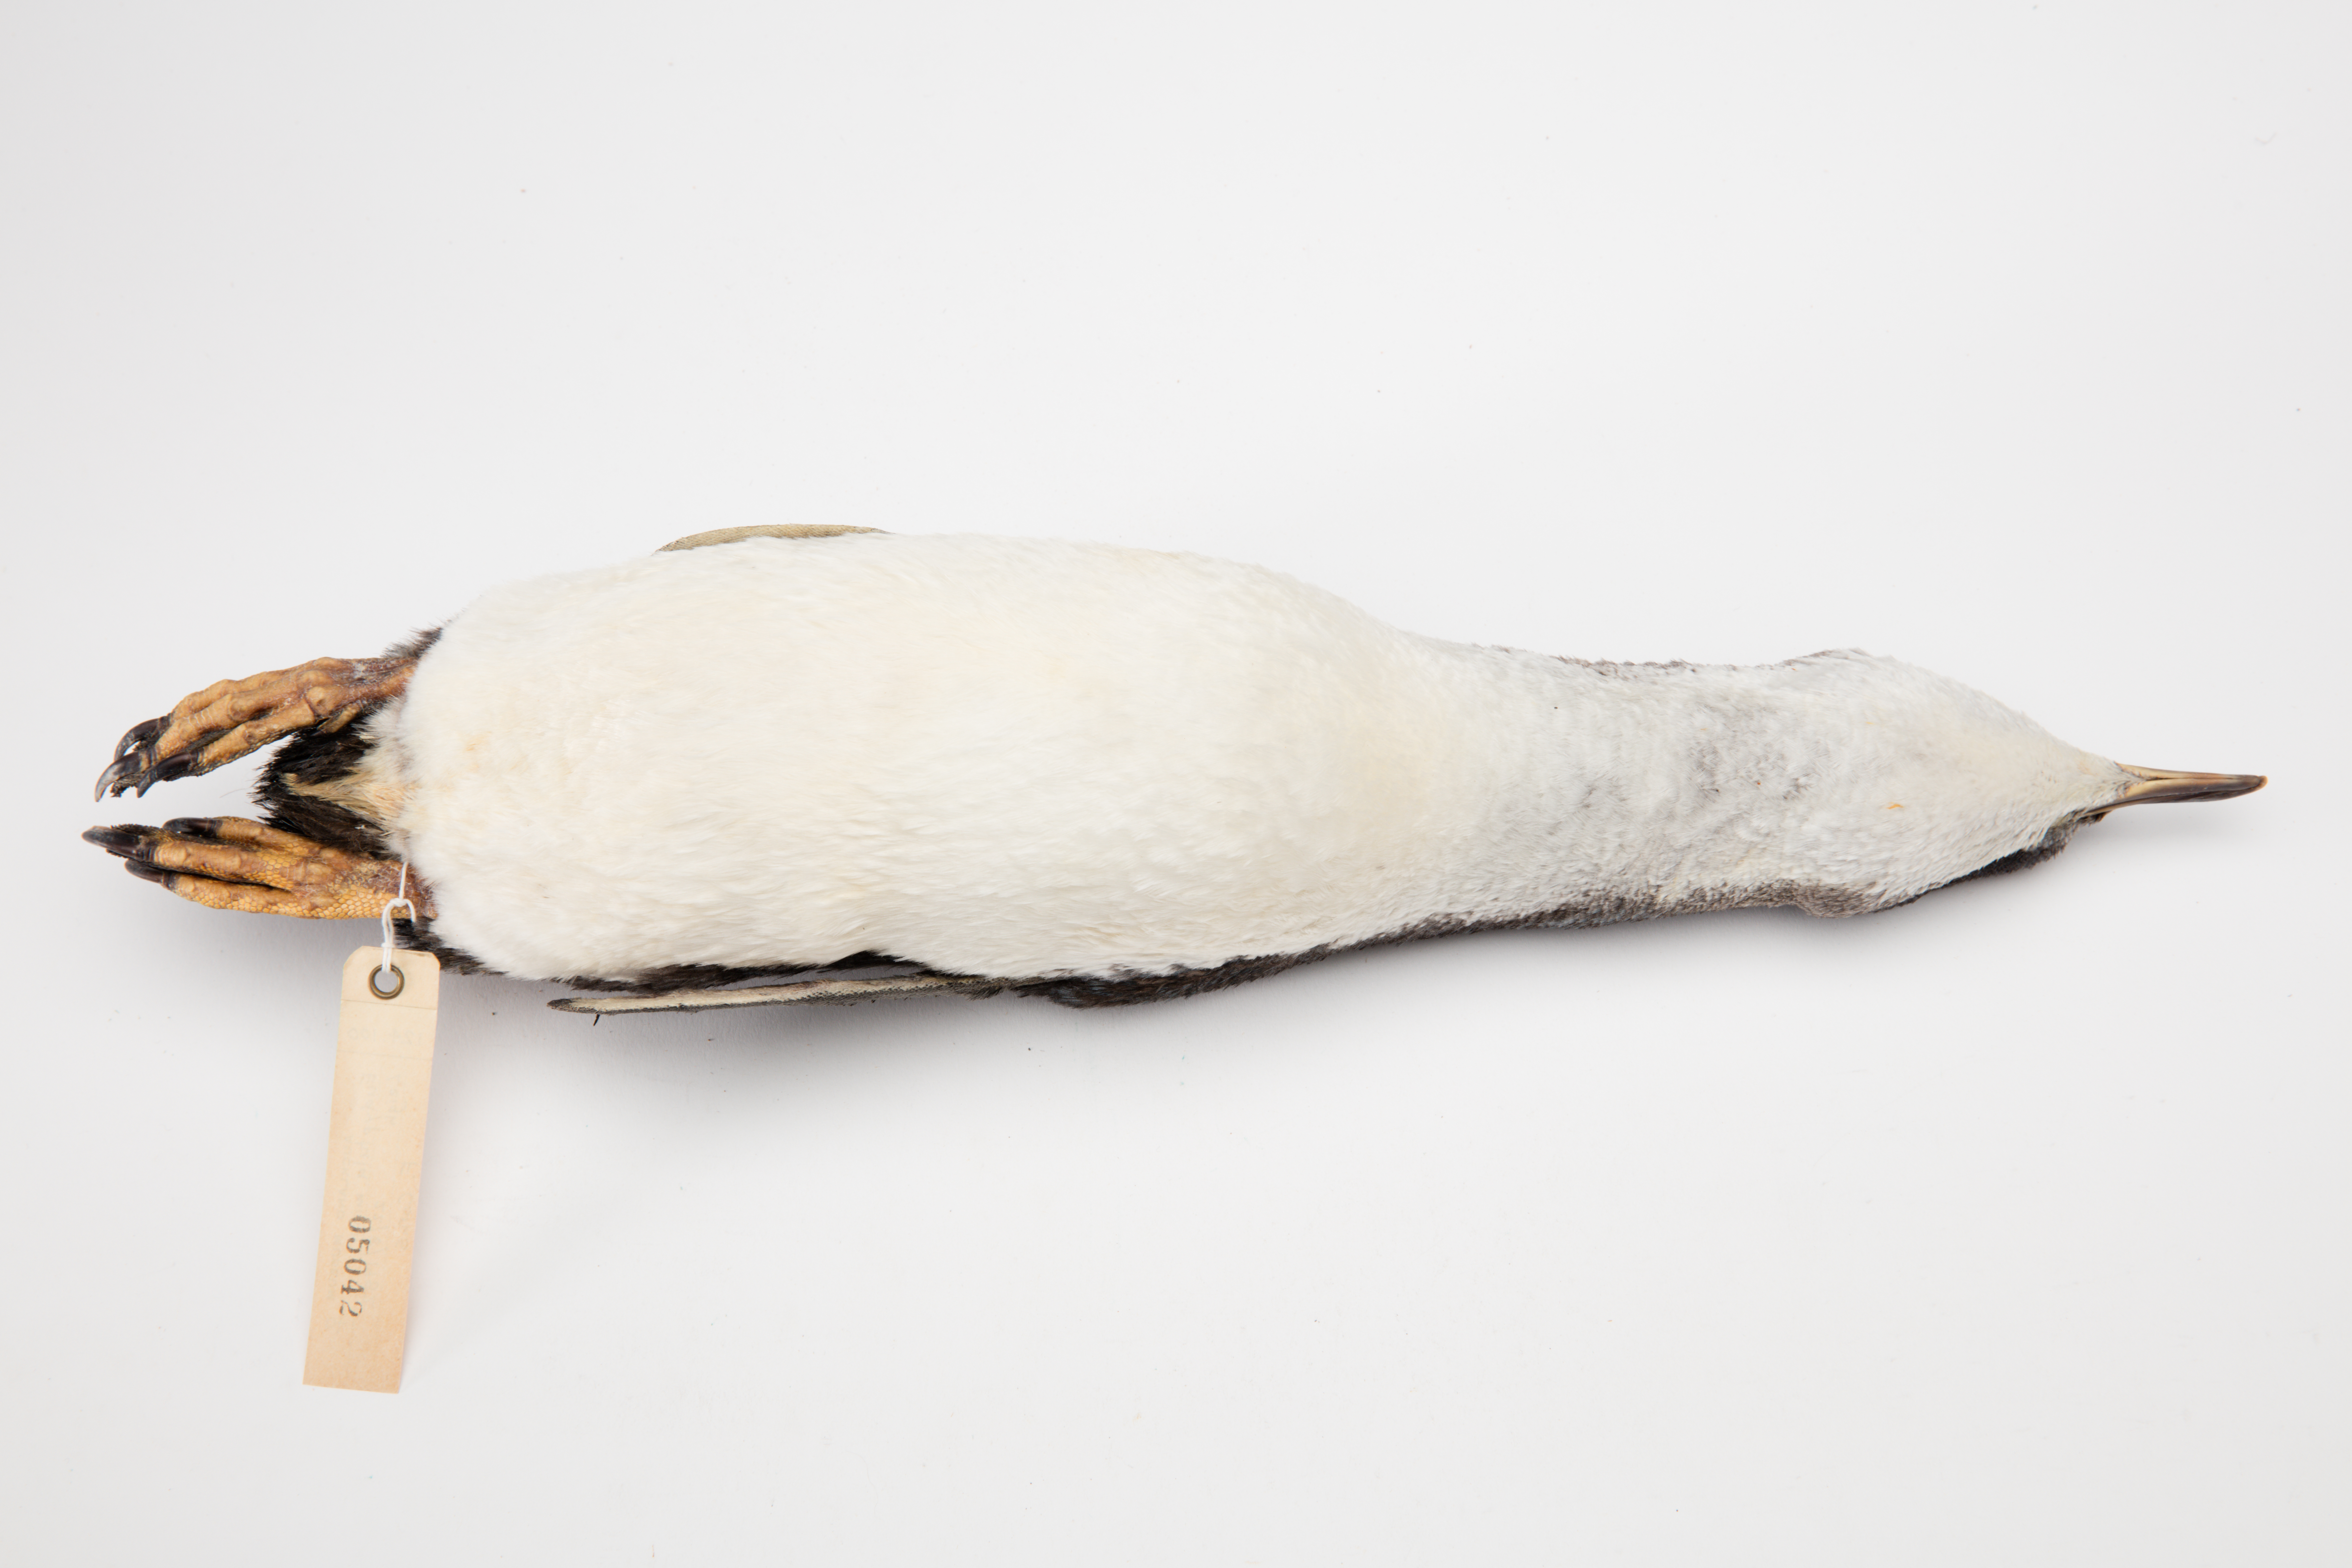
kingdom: Animalia
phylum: Chordata
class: Aves
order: Sphenisciformes
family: Spheniscidae
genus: Eudyptula
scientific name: Eudyptula minor
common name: Little penguin
